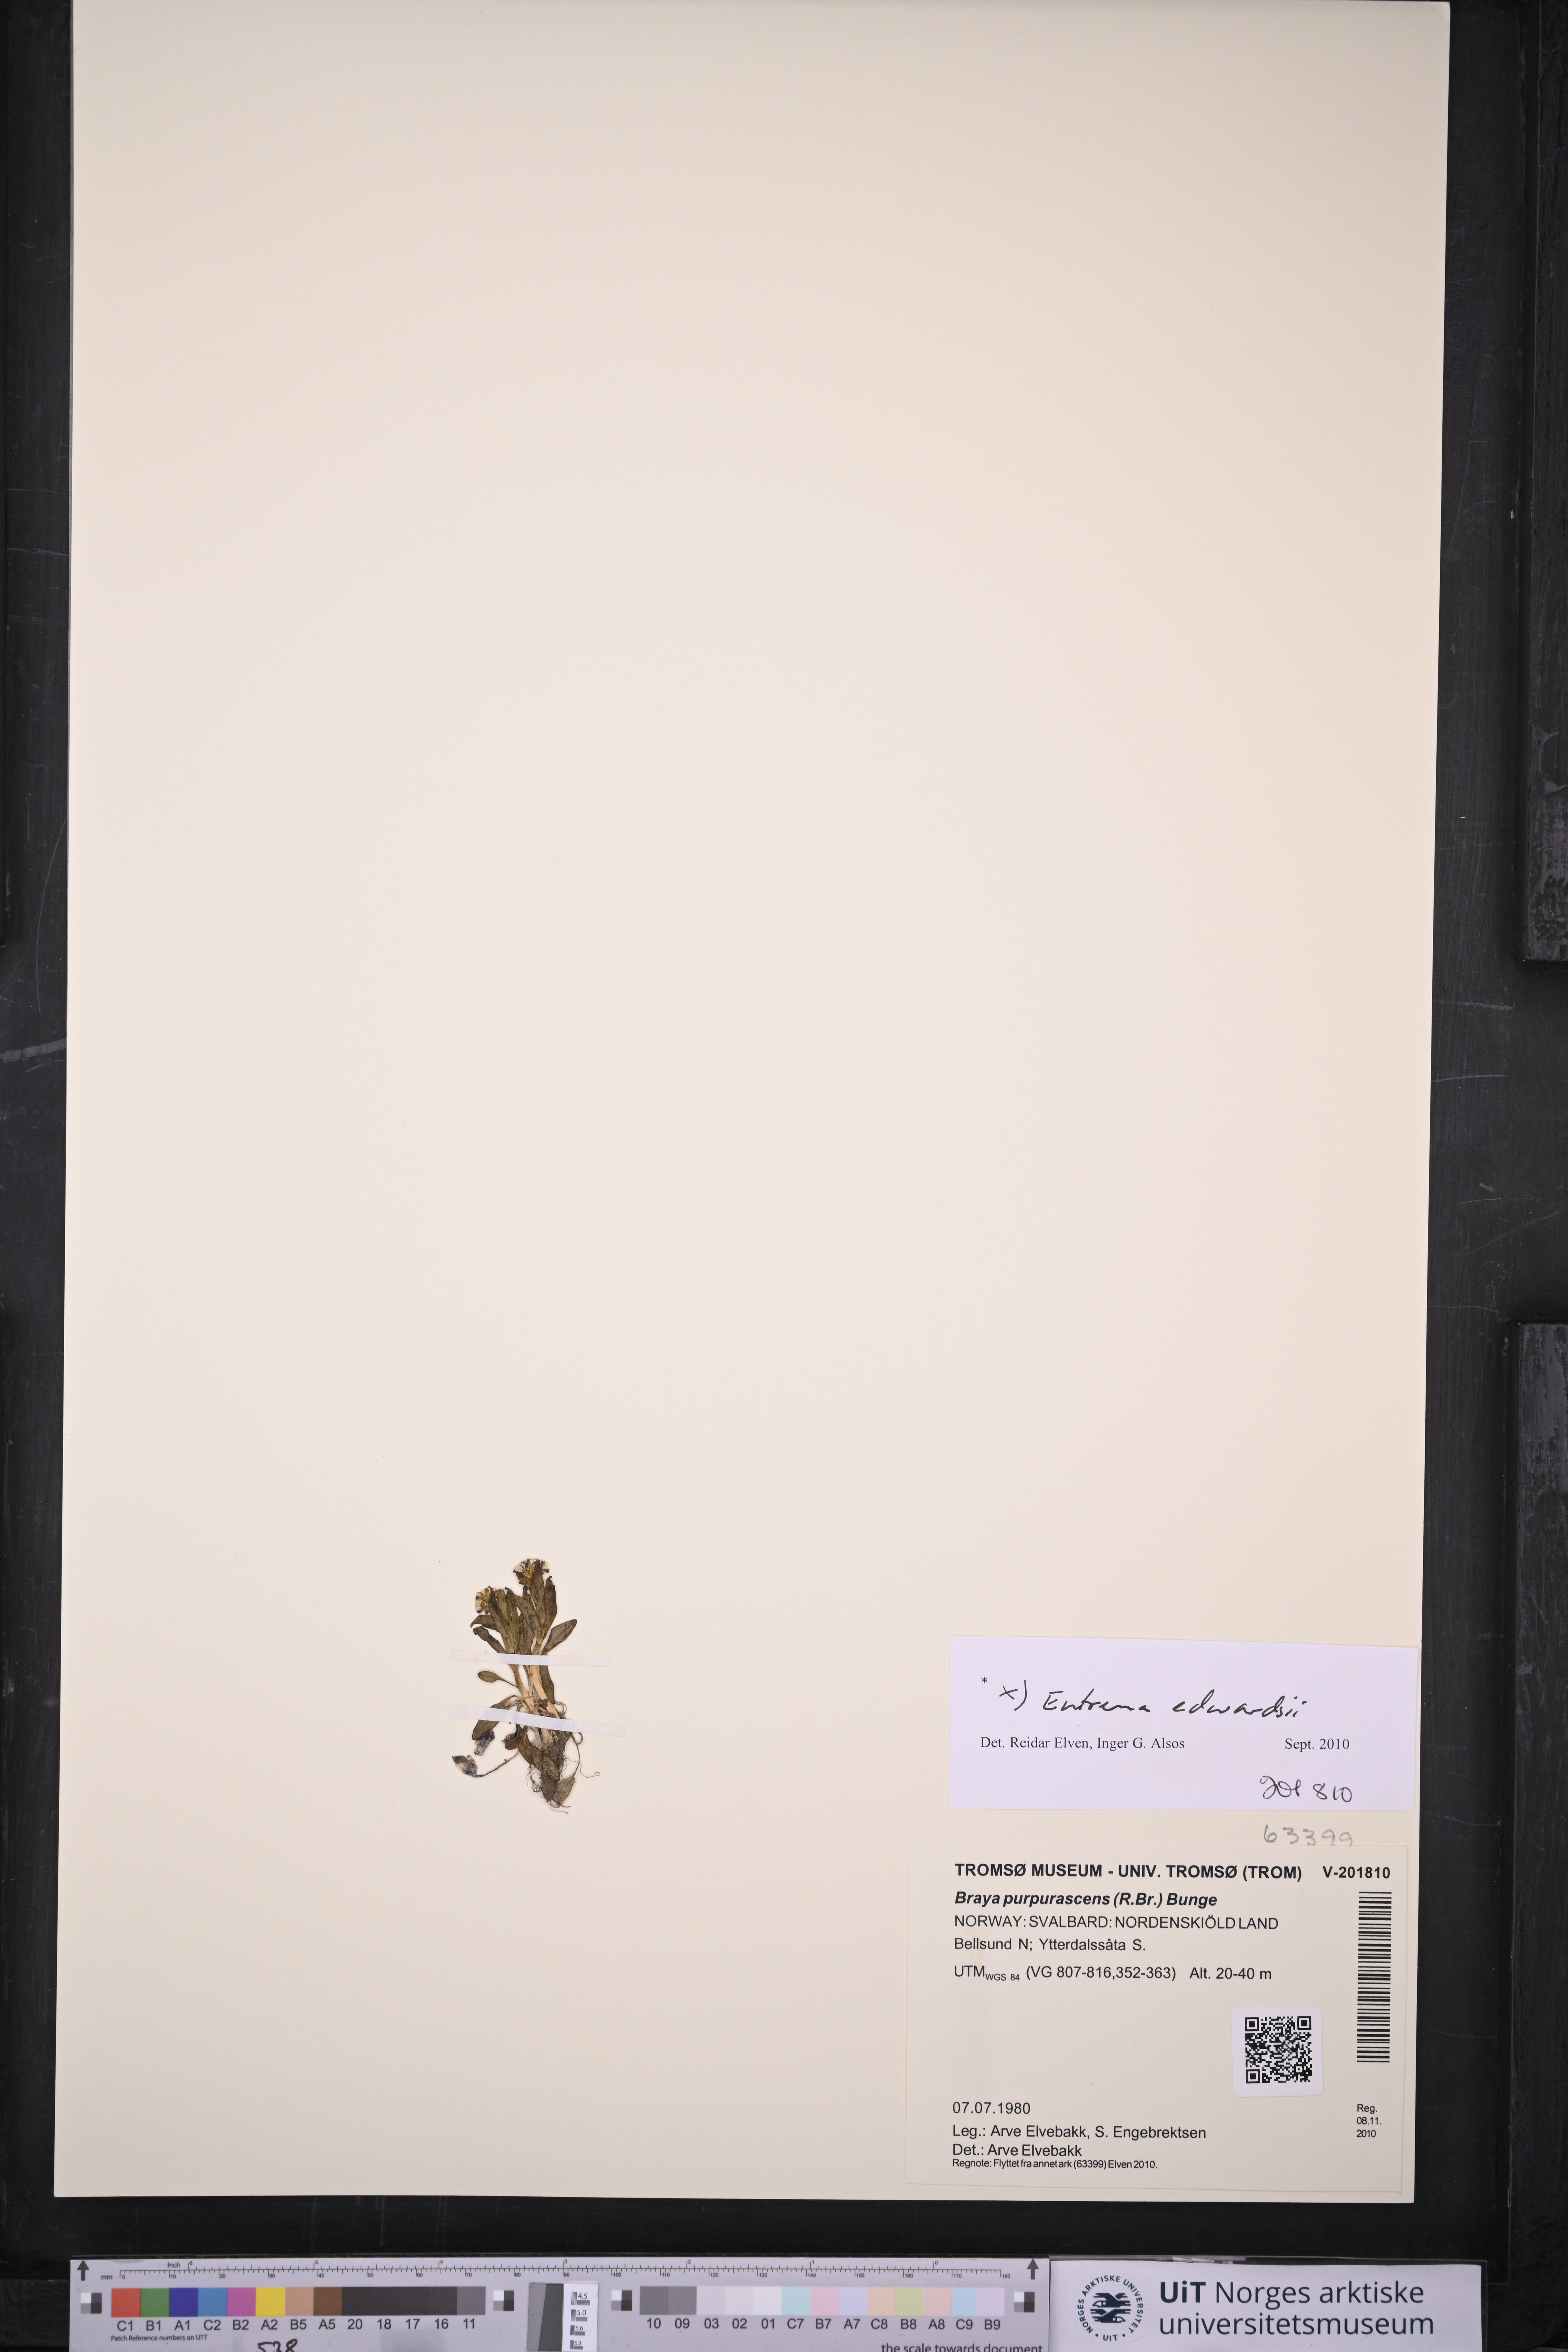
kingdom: Plantae
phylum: Tracheophyta
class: Magnoliopsida
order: Brassicales
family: Brassicaceae
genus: Eutrema
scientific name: Eutrema edwardsii
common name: Penland alpine fen mustard
